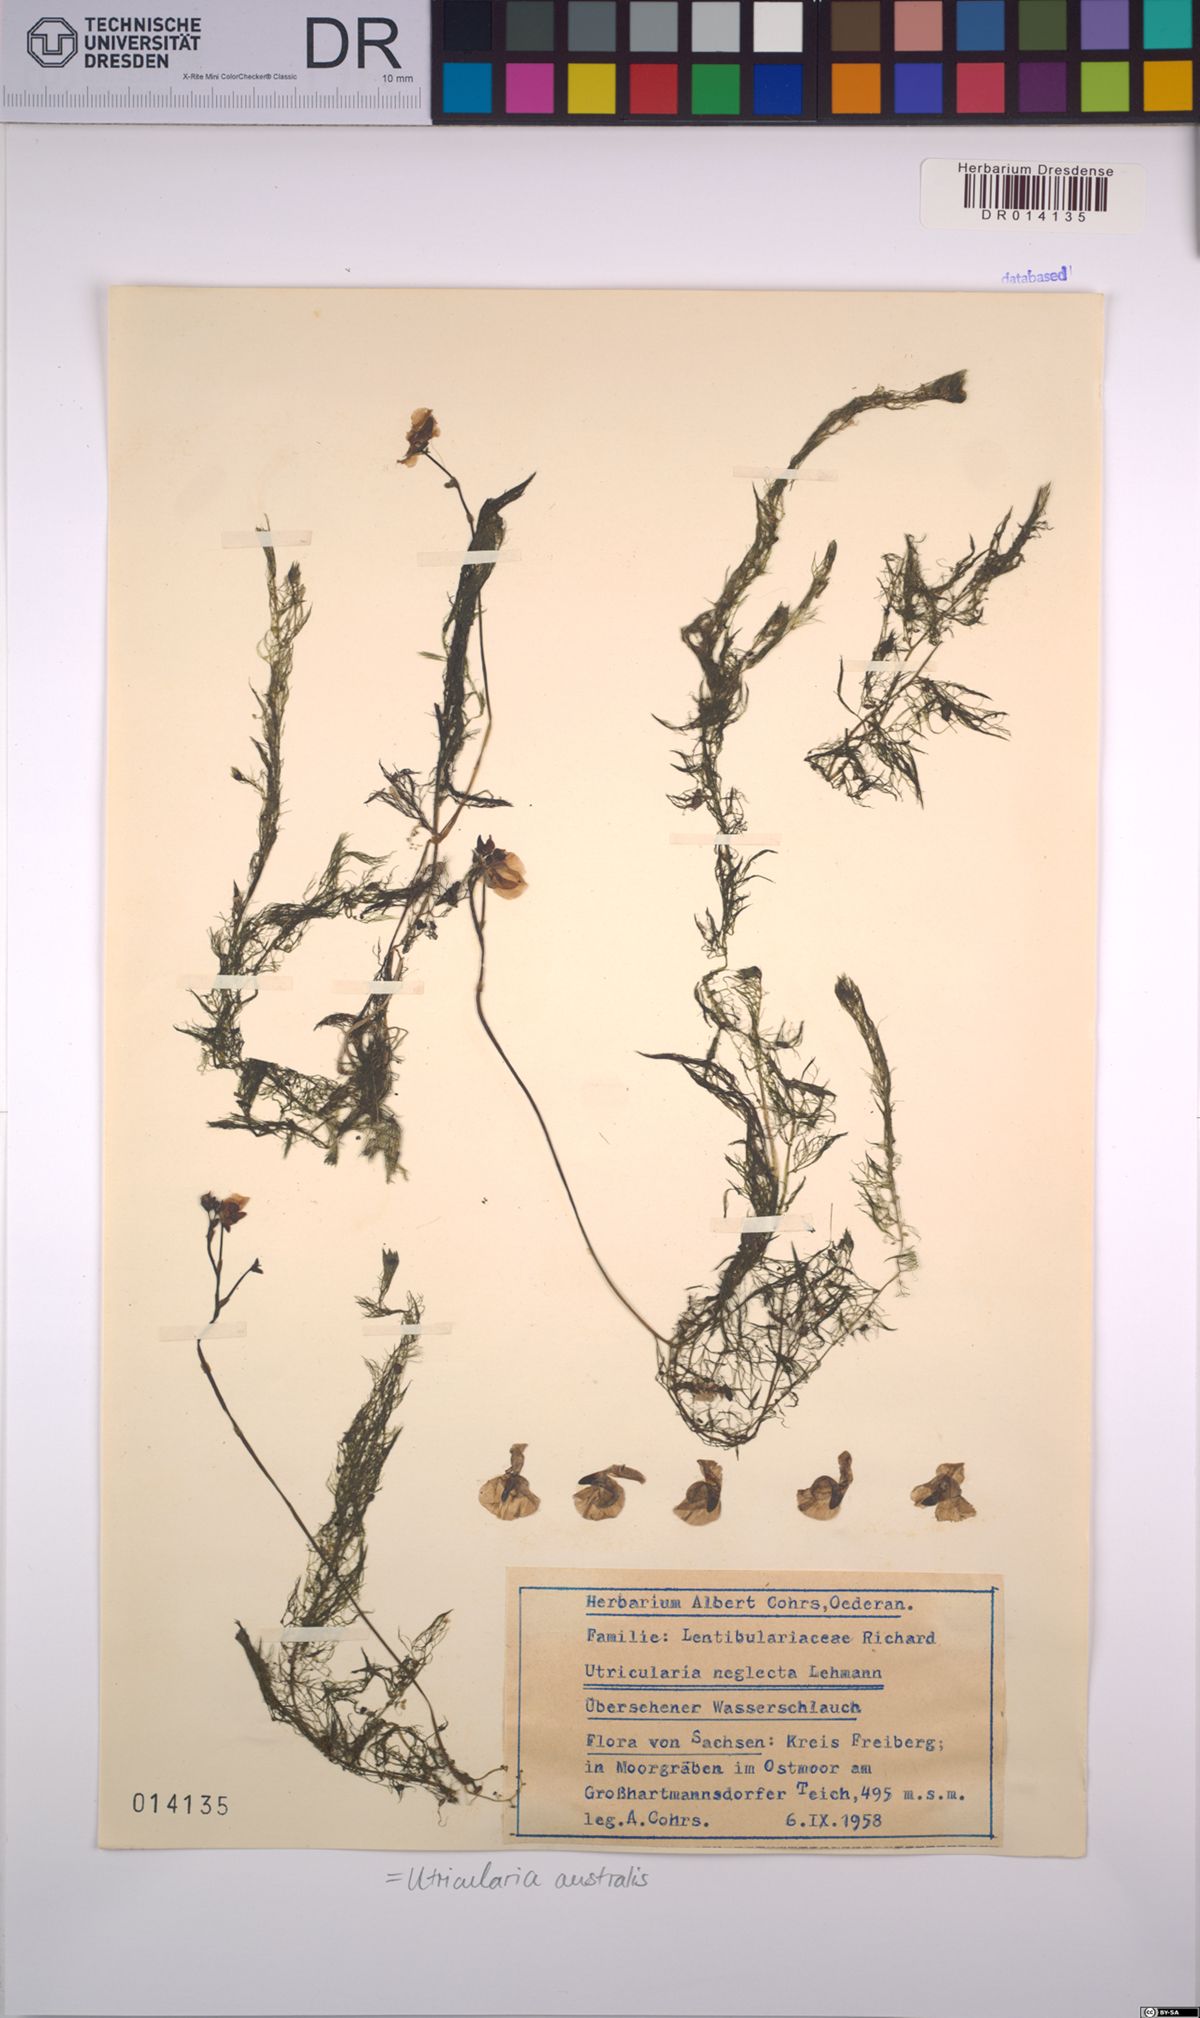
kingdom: Plantae
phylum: Tracheophyta
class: Magnoliopsida
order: Lamiales
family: Lentibulariaceae
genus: Utricularia
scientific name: Utricularia australis
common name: Bladderwort
